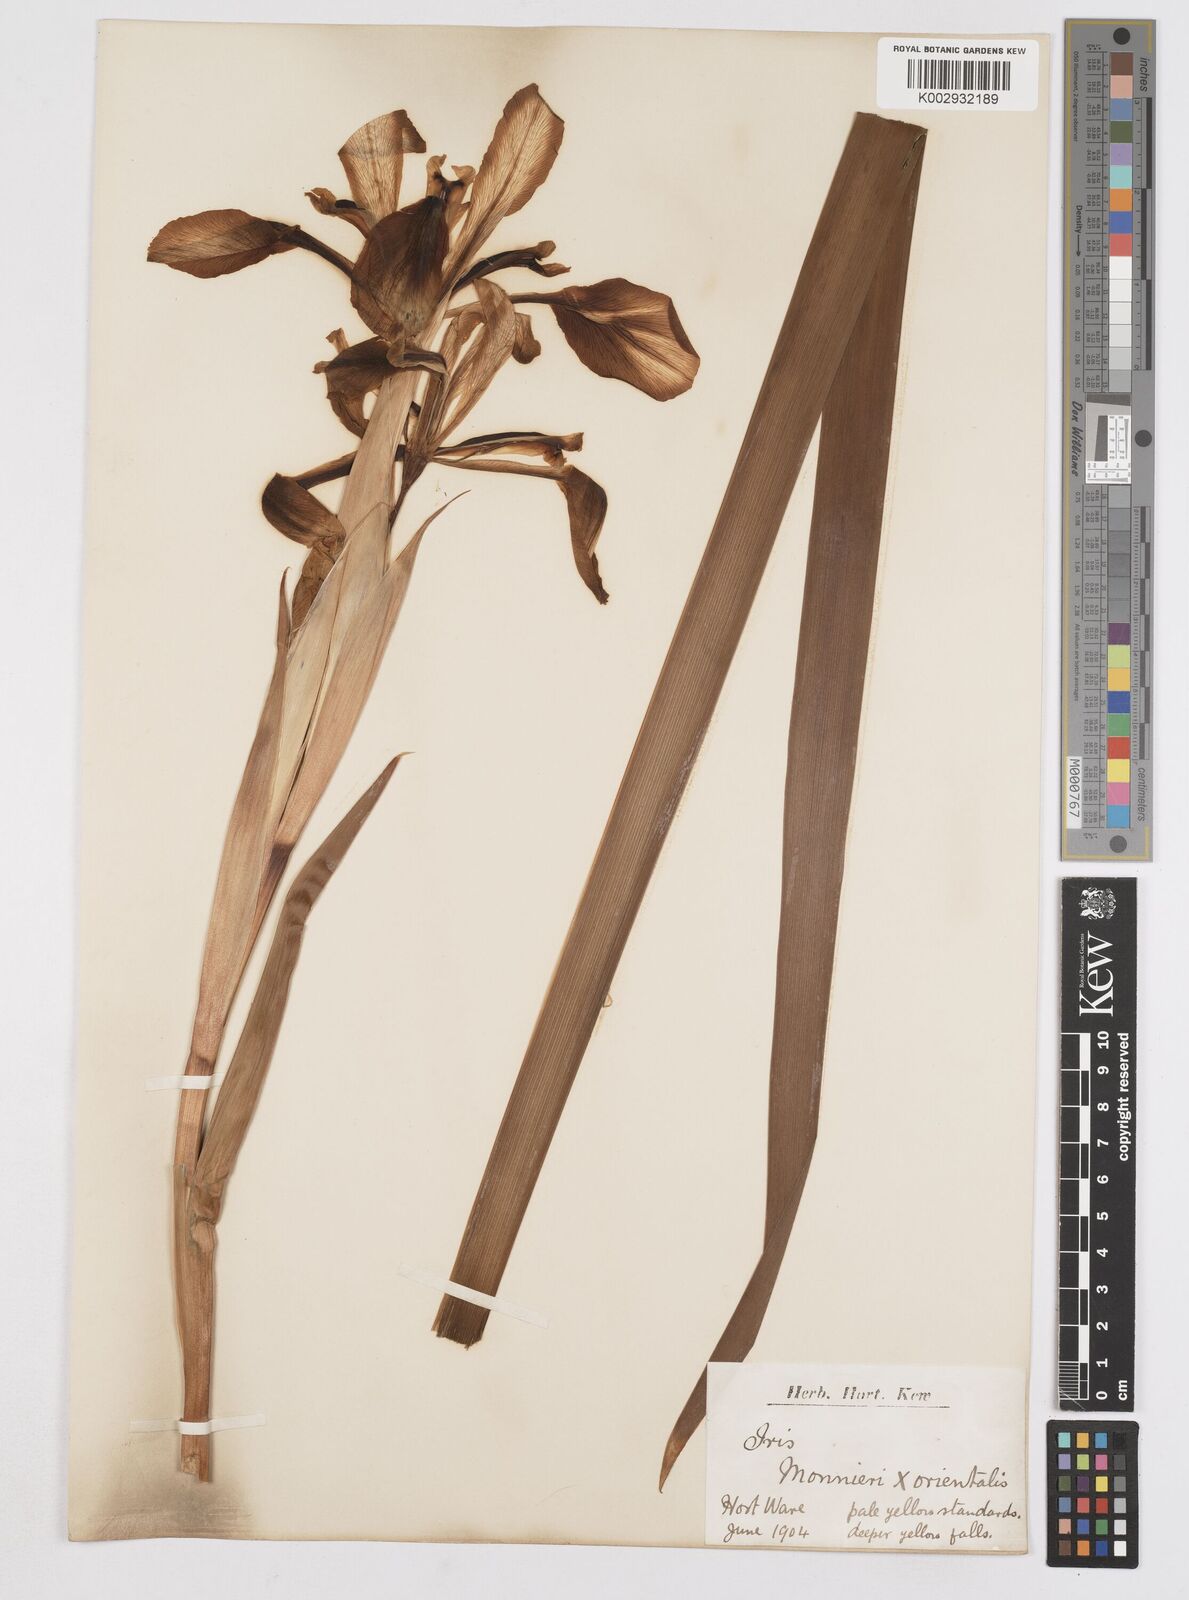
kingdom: Plantae
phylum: Tracheophyta
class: Liliopsida
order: Asparagales
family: Iridaceae
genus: Iris
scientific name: Iris orientalis
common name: Turkish iris
